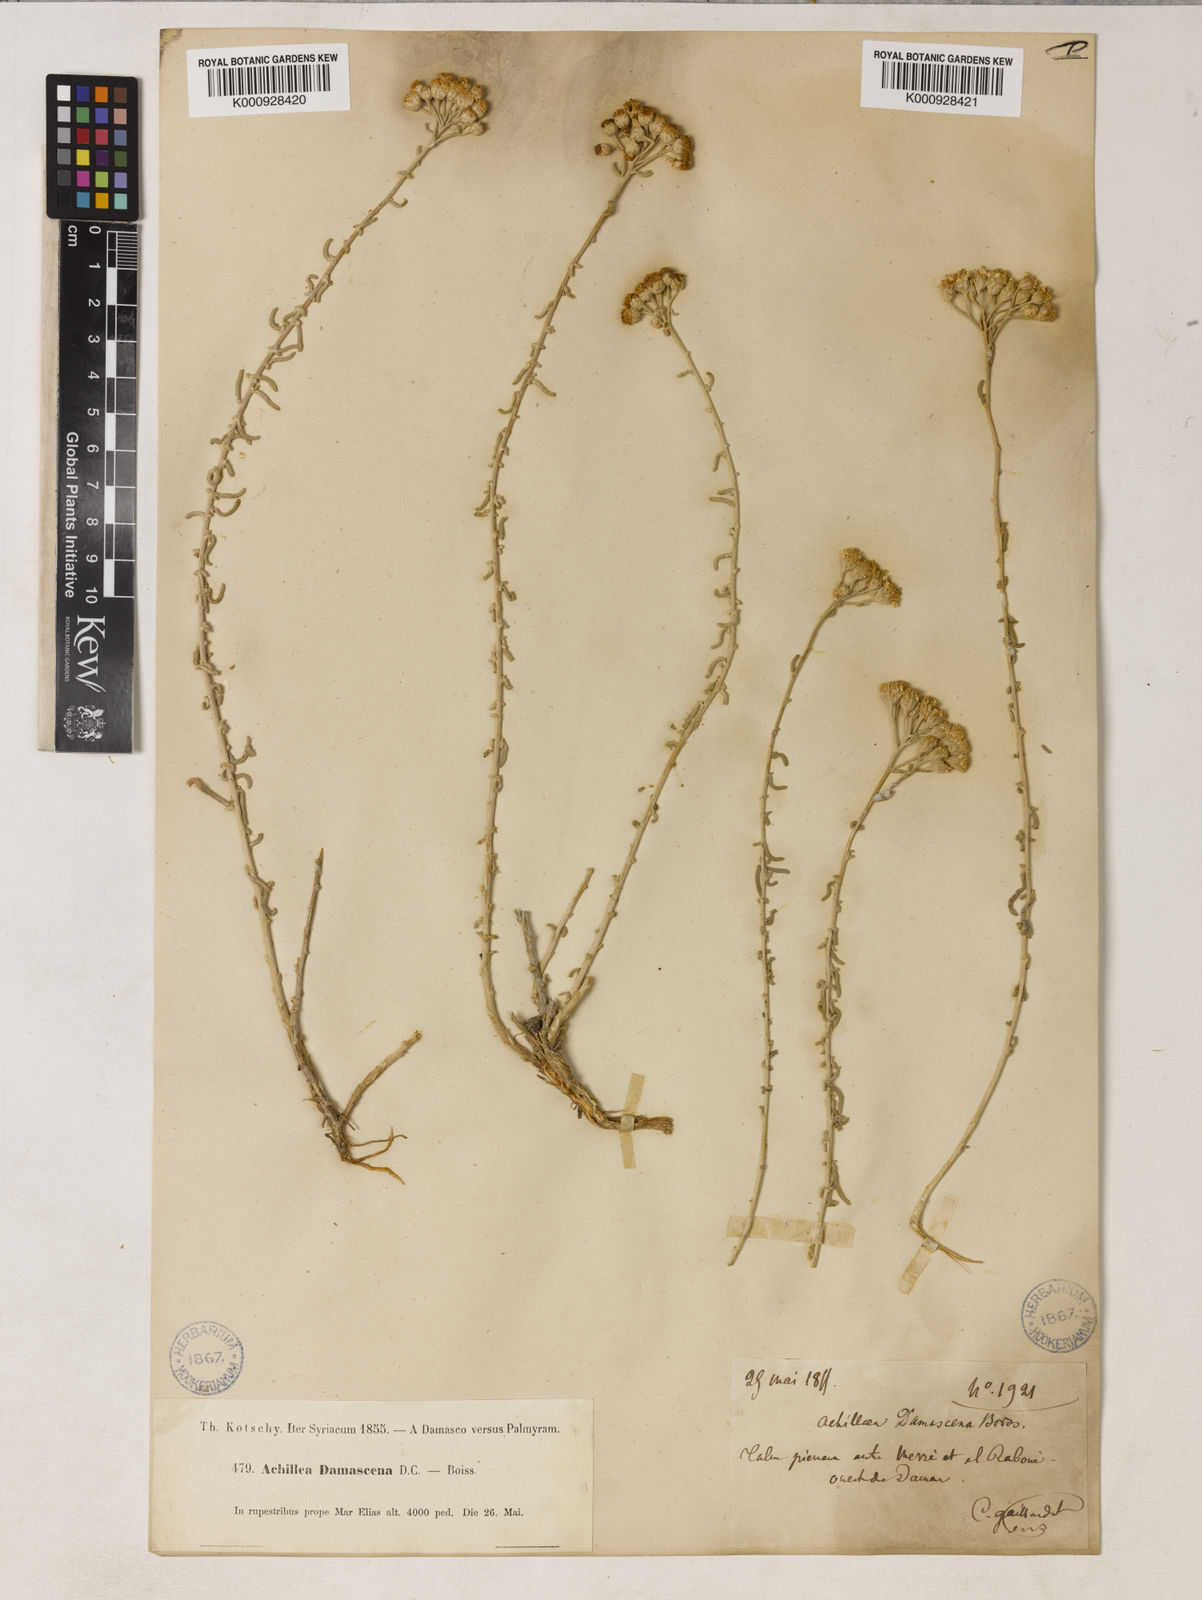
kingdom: Plantae
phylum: Tracheophyta
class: Magnoliopsida
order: Asterales
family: Asteraceae
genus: Achillea
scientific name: Achillea falcata
